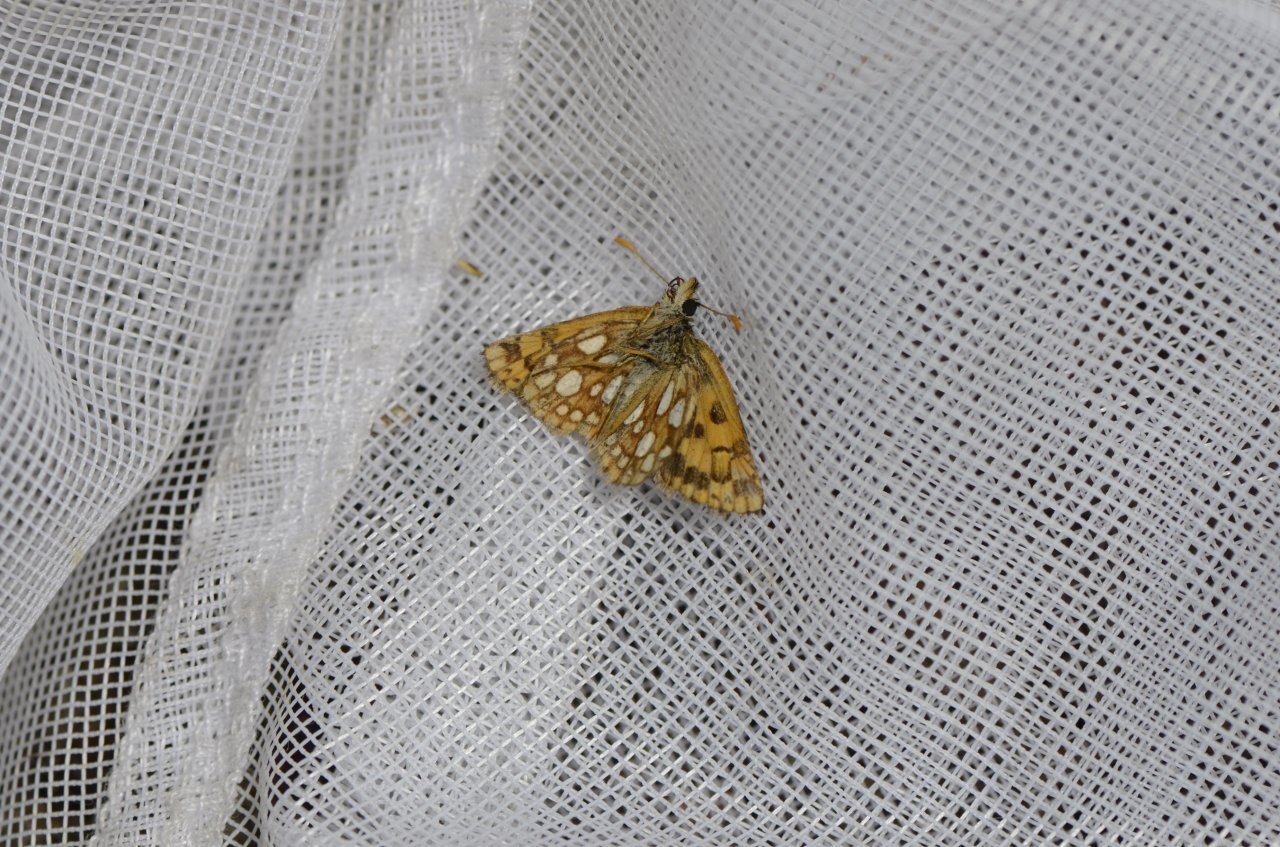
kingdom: Animalia
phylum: Arthropoda
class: Insecta
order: Lepidoptera
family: Hesperiidae
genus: Carterocephalus
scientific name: Carterocephalus palaemon
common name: Chequered Skipper
